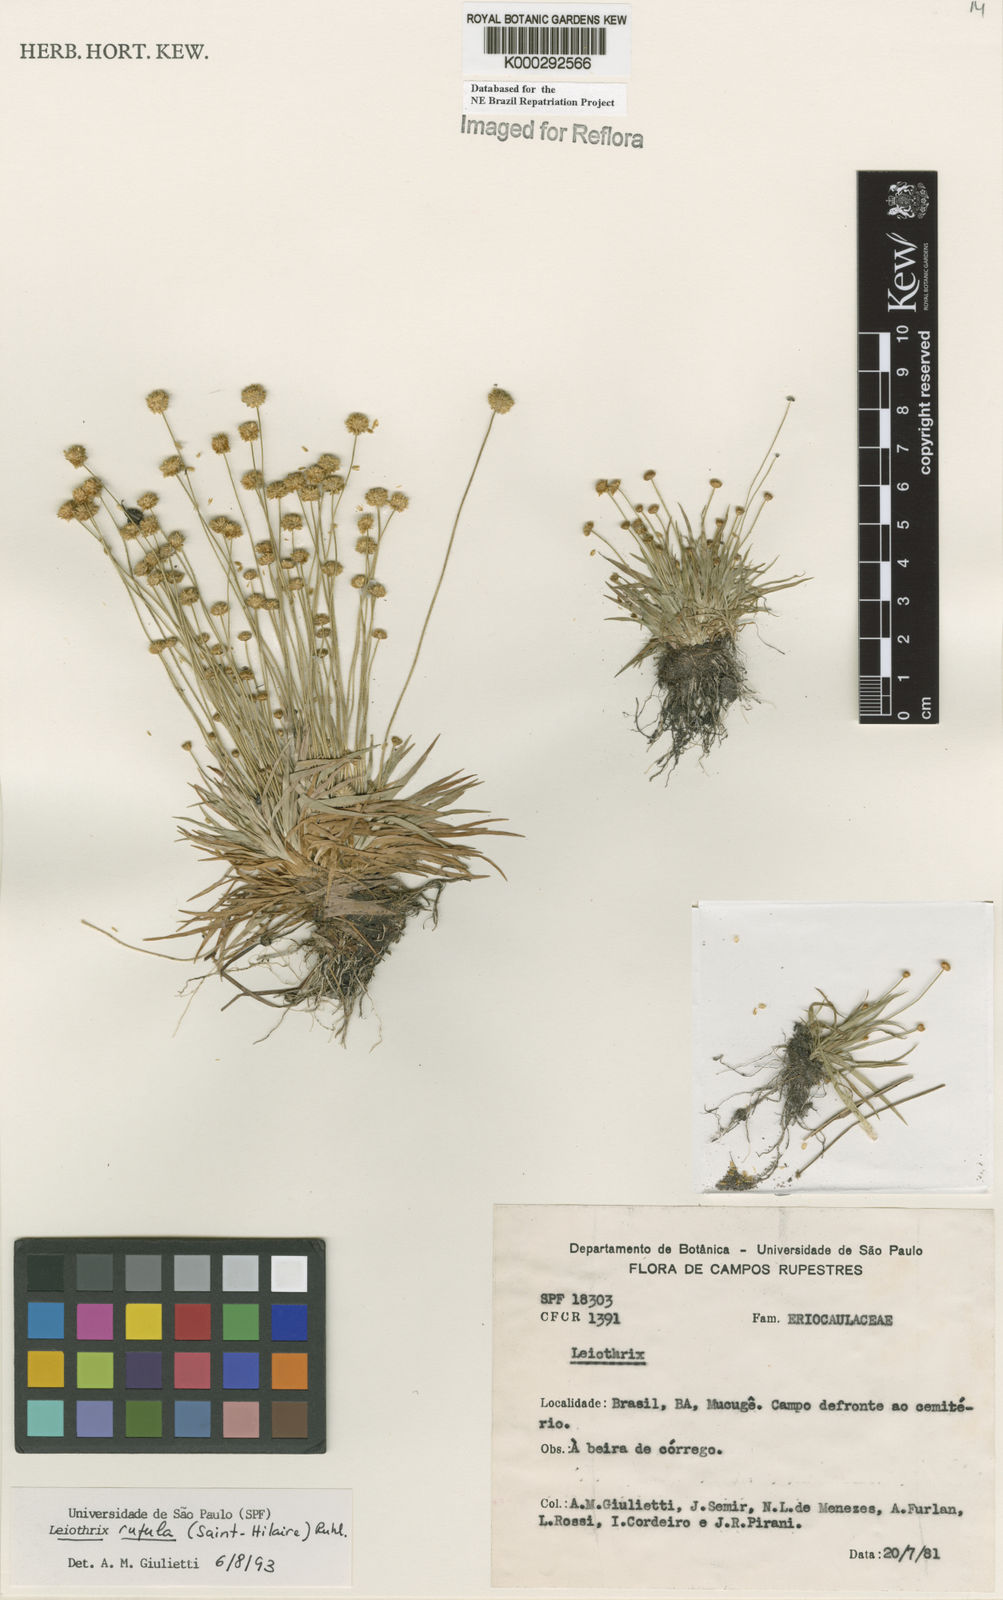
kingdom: Plantae
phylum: Tracheophyta
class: Liliopsida
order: Poales
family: Eriocaulaceae
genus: Leiothrix
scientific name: Leiothrix rufula
